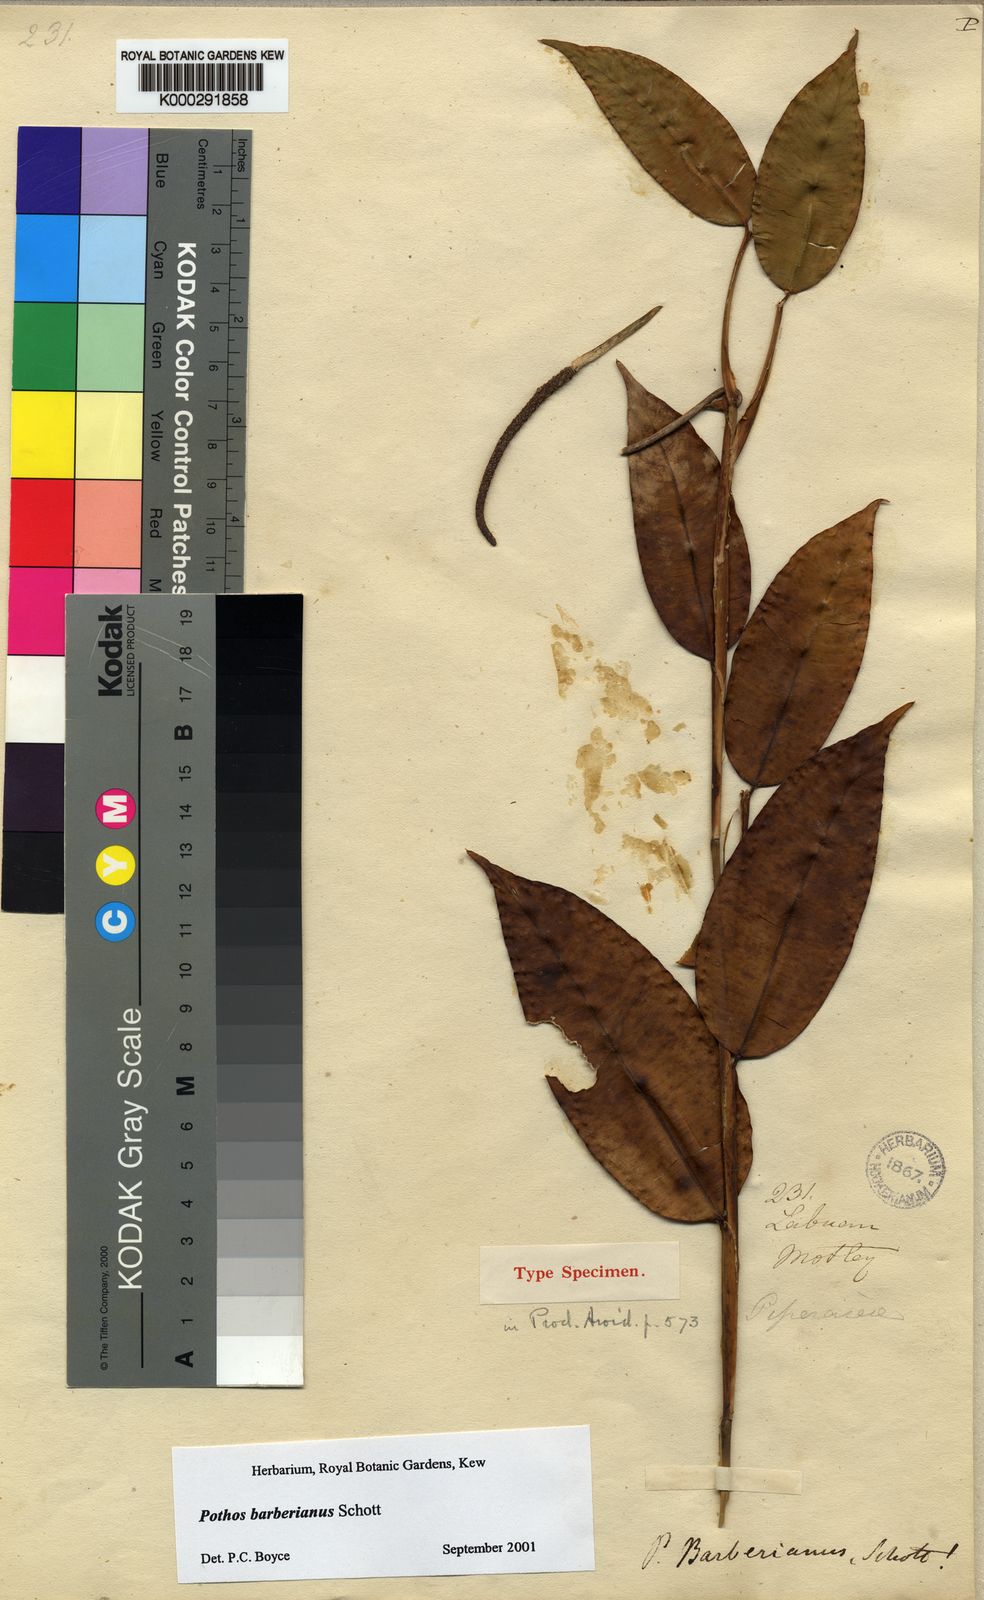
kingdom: Plantae
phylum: Tracheophyta
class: Liliopsida
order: Alismatales
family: Araceae
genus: Pothos
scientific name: Pothos barberianus
